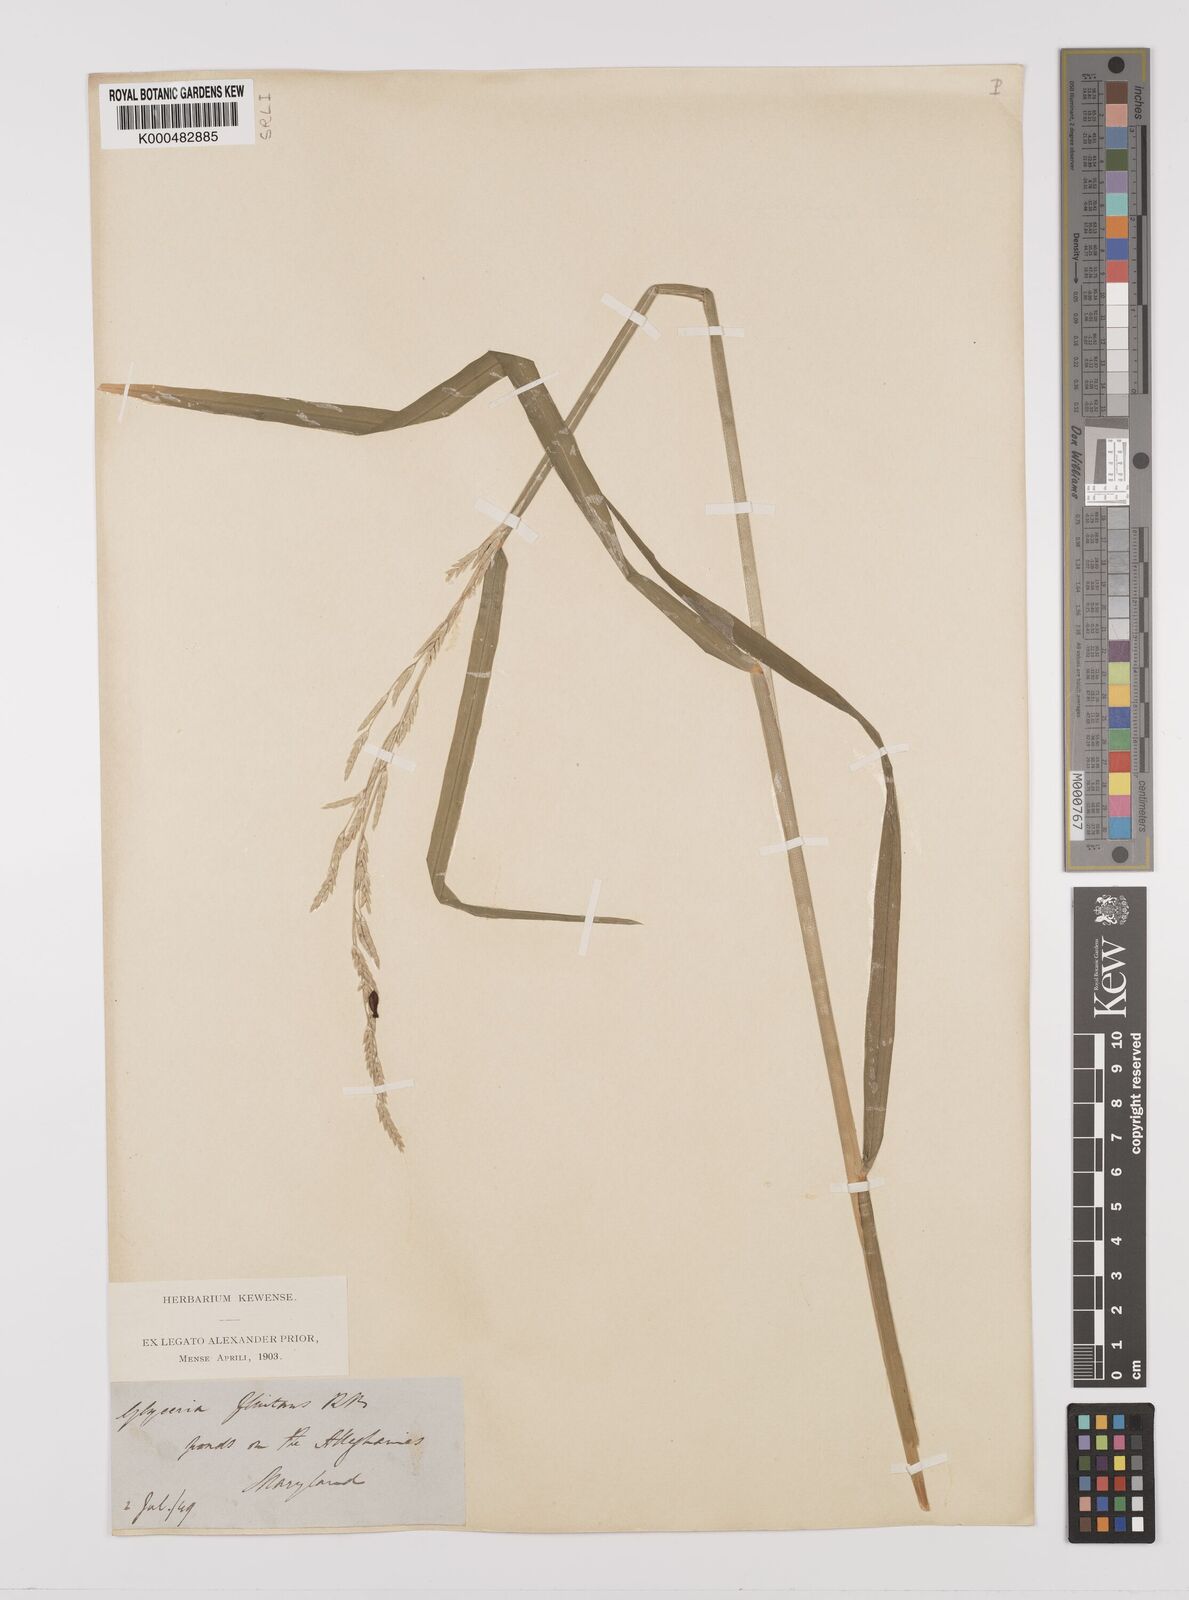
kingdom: Plantae
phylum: Tracheophyta
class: Liliopsida
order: Poales
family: Poaceae
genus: Glyceria
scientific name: Glyceria septentrionalis
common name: Eastern mannagrass
